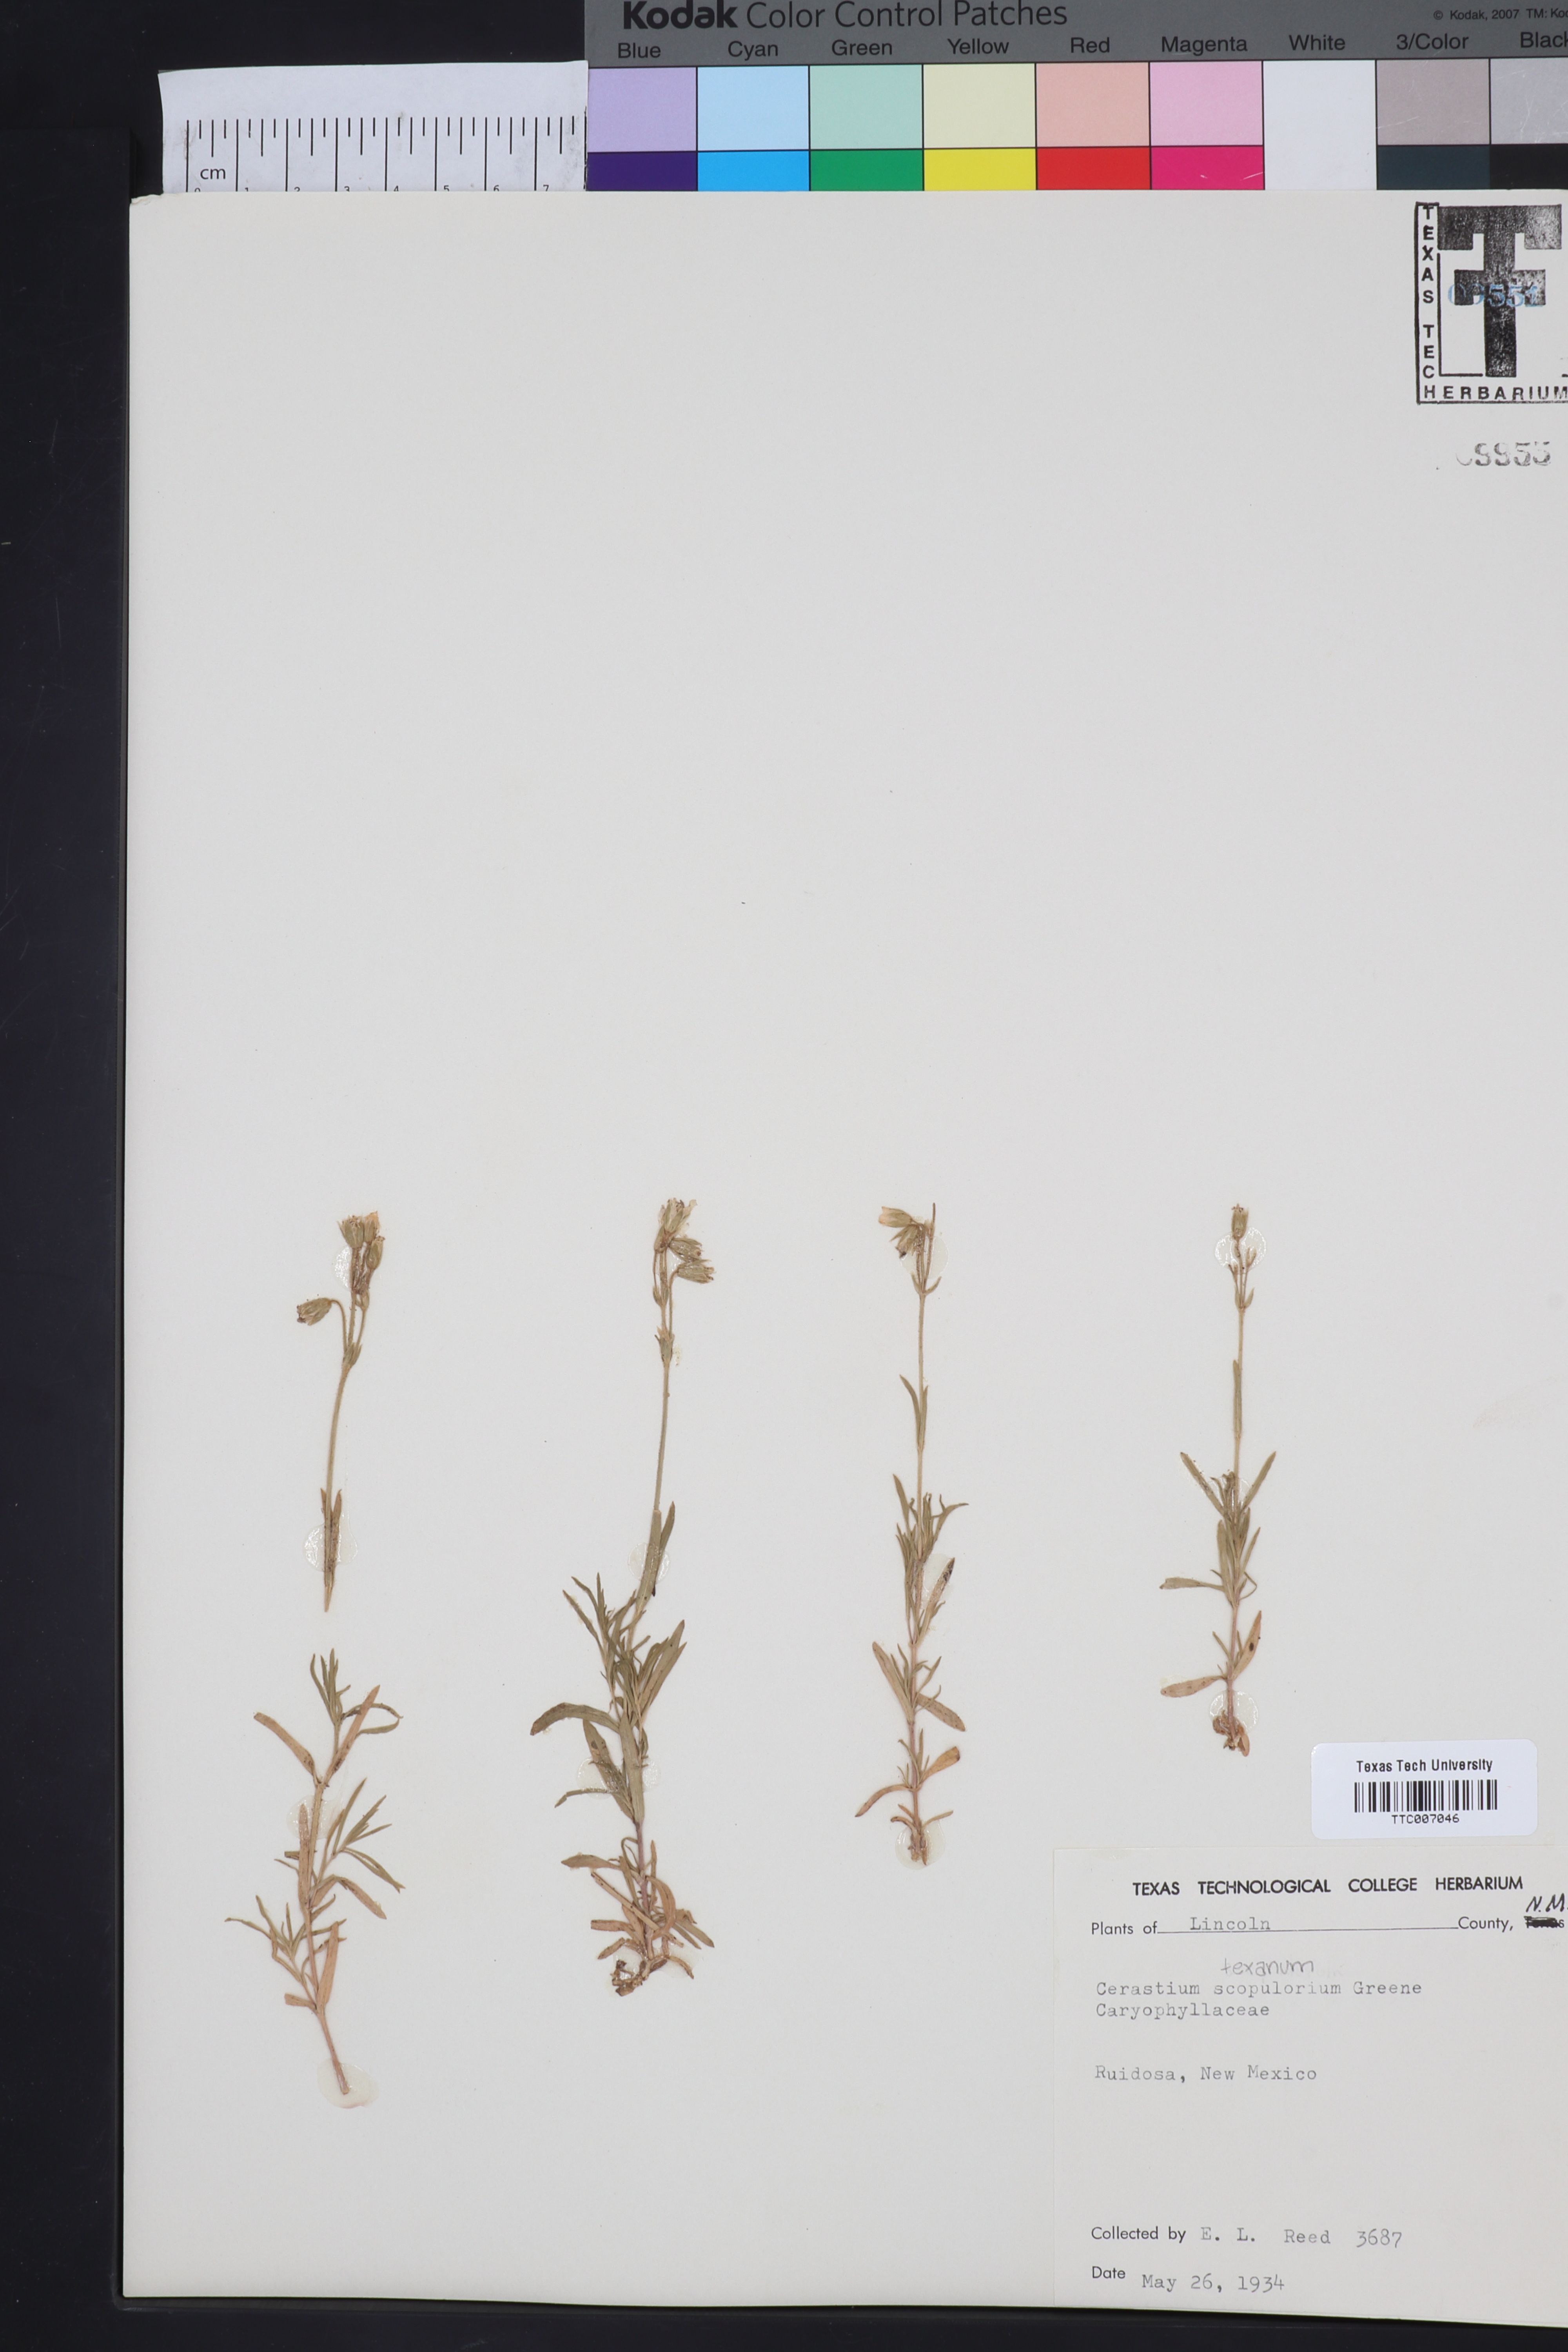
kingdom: Plantae
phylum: Tracheophyta
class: Magnoliopsida
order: Caryophyllales
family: Caryophyllaceae
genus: Cerastium
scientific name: Cerastium elongatum
